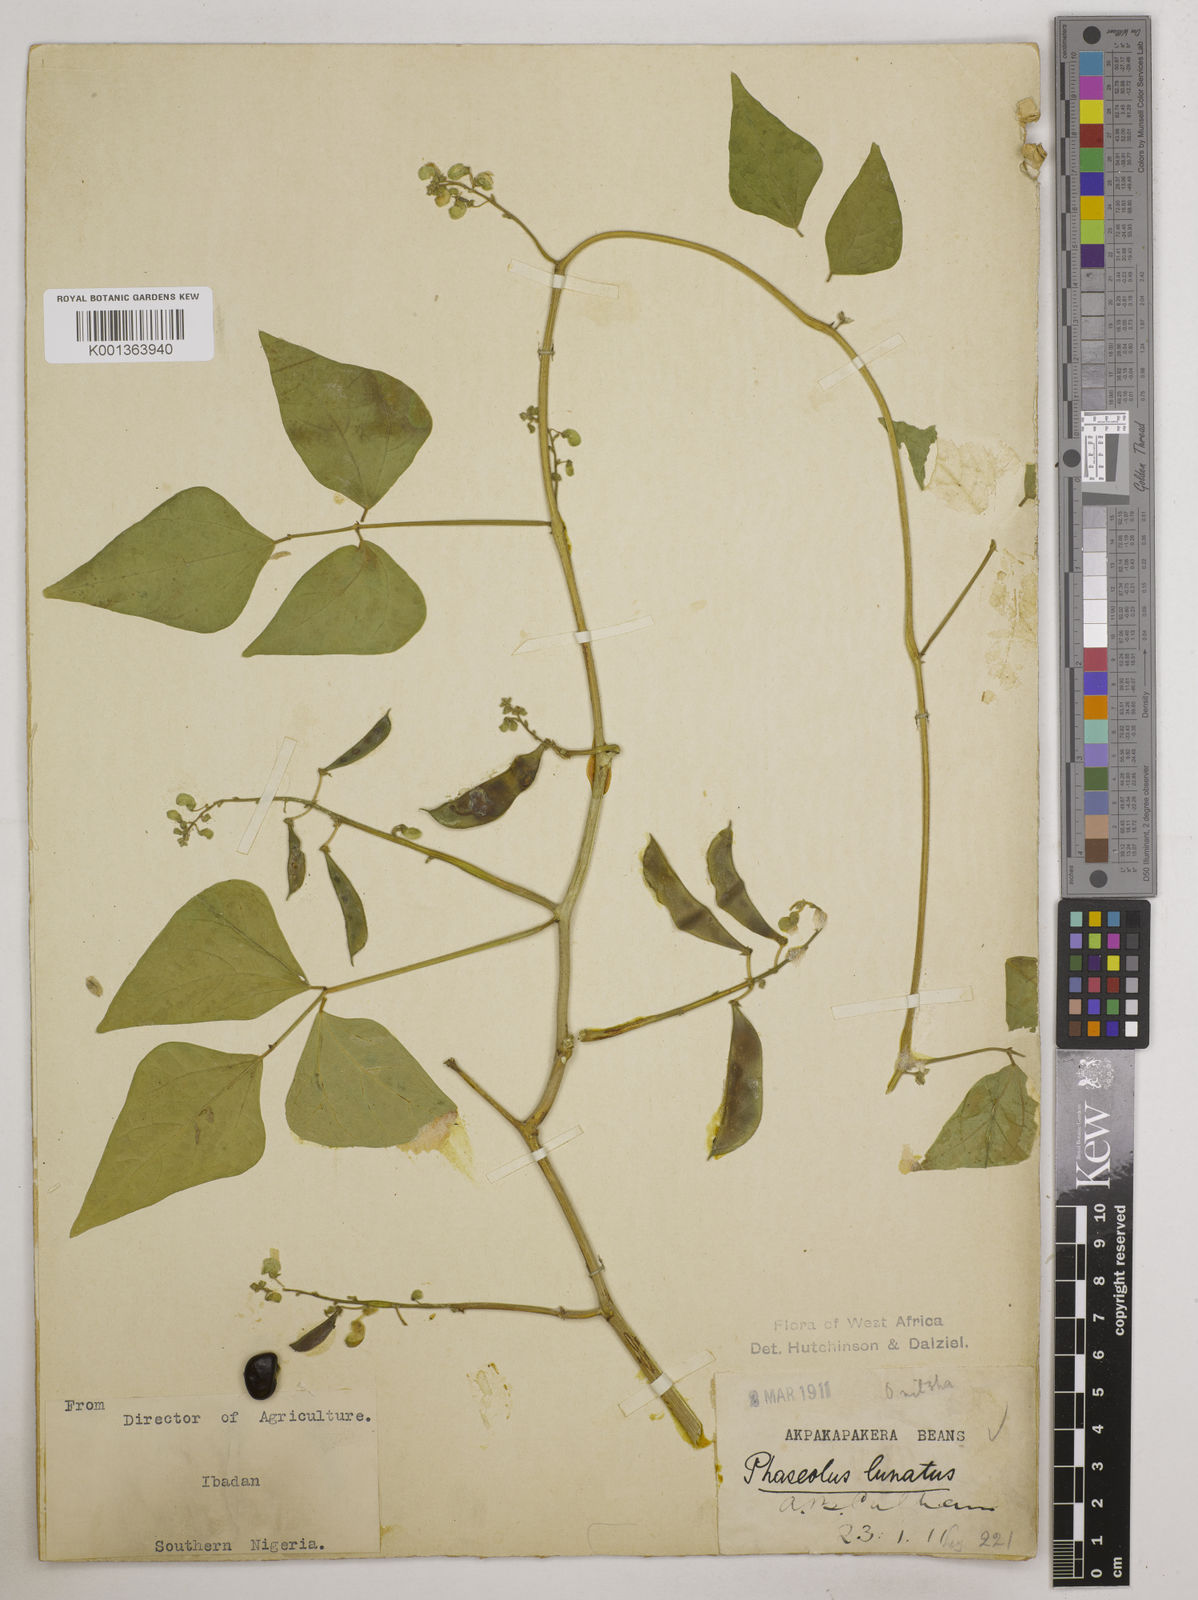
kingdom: Plantae
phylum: Tracheophyta
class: Magnoliopsida
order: Fabales
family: Fabaceae
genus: Phaseolus
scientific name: Phaseolus lunatus
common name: Sieva bean
